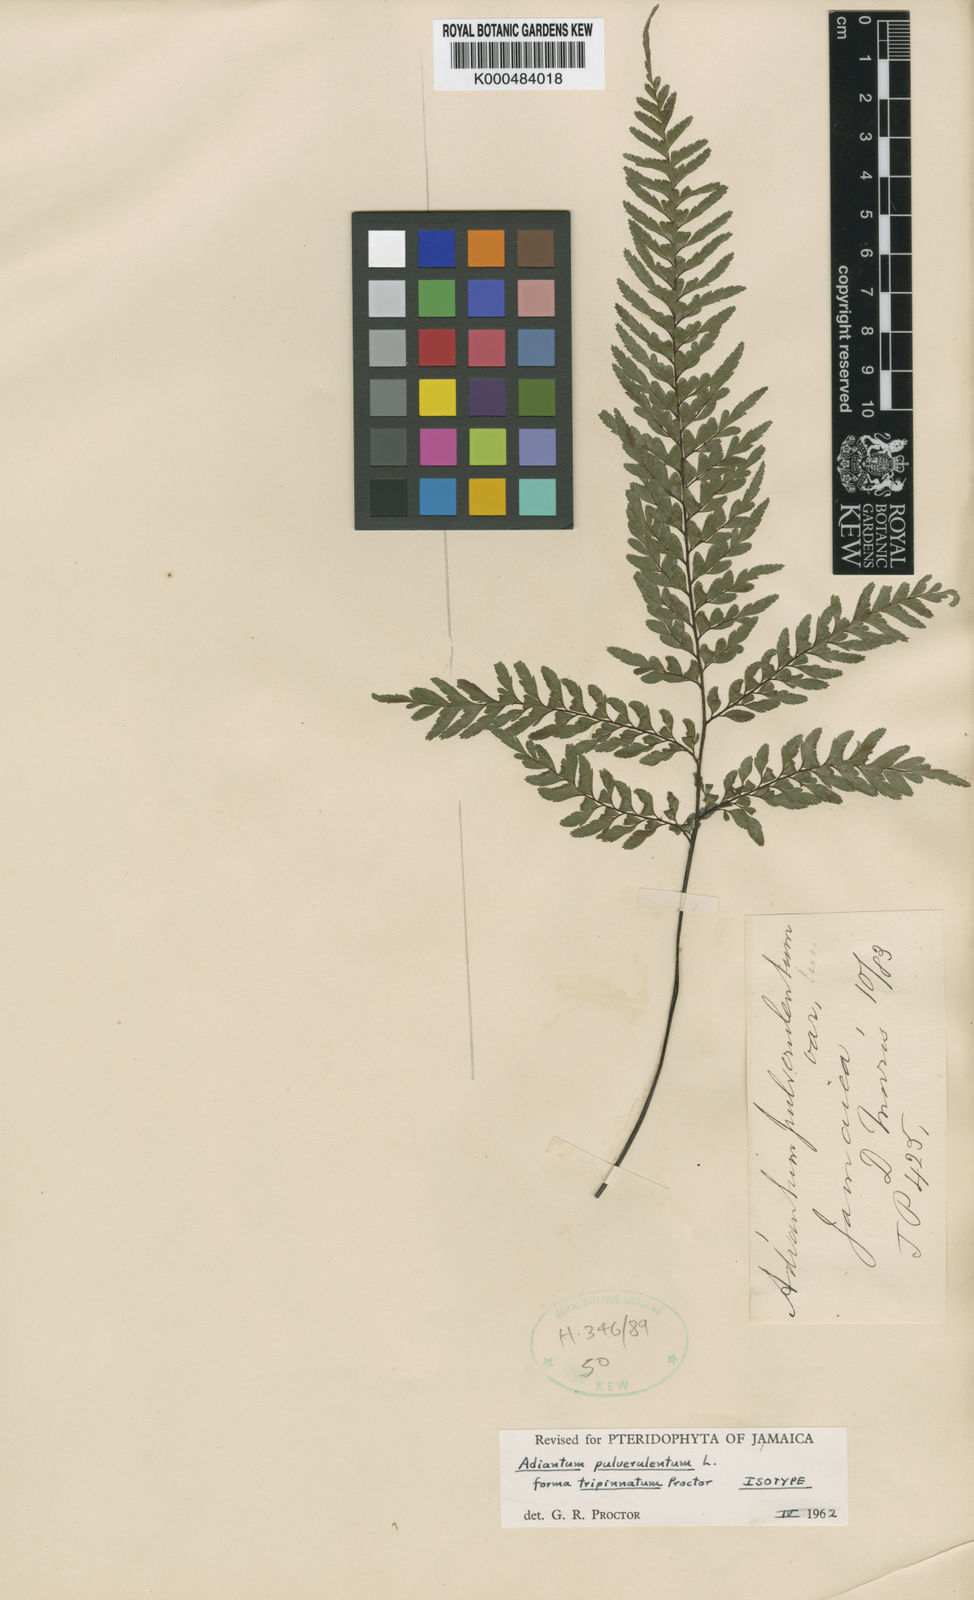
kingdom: Plantae
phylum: Tracheophyta
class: Polypodiopsida
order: Polypodiales
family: Pteridaceae
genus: Adiantum
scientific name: Adiantum pulverulentum
